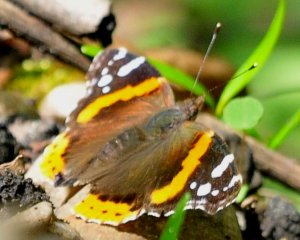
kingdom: Animalia
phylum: Arthropoda
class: Insecta
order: Lepidoptera
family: Nymphalidae
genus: Vanessa
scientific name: Vanessa atalanta
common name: Red Admiral
